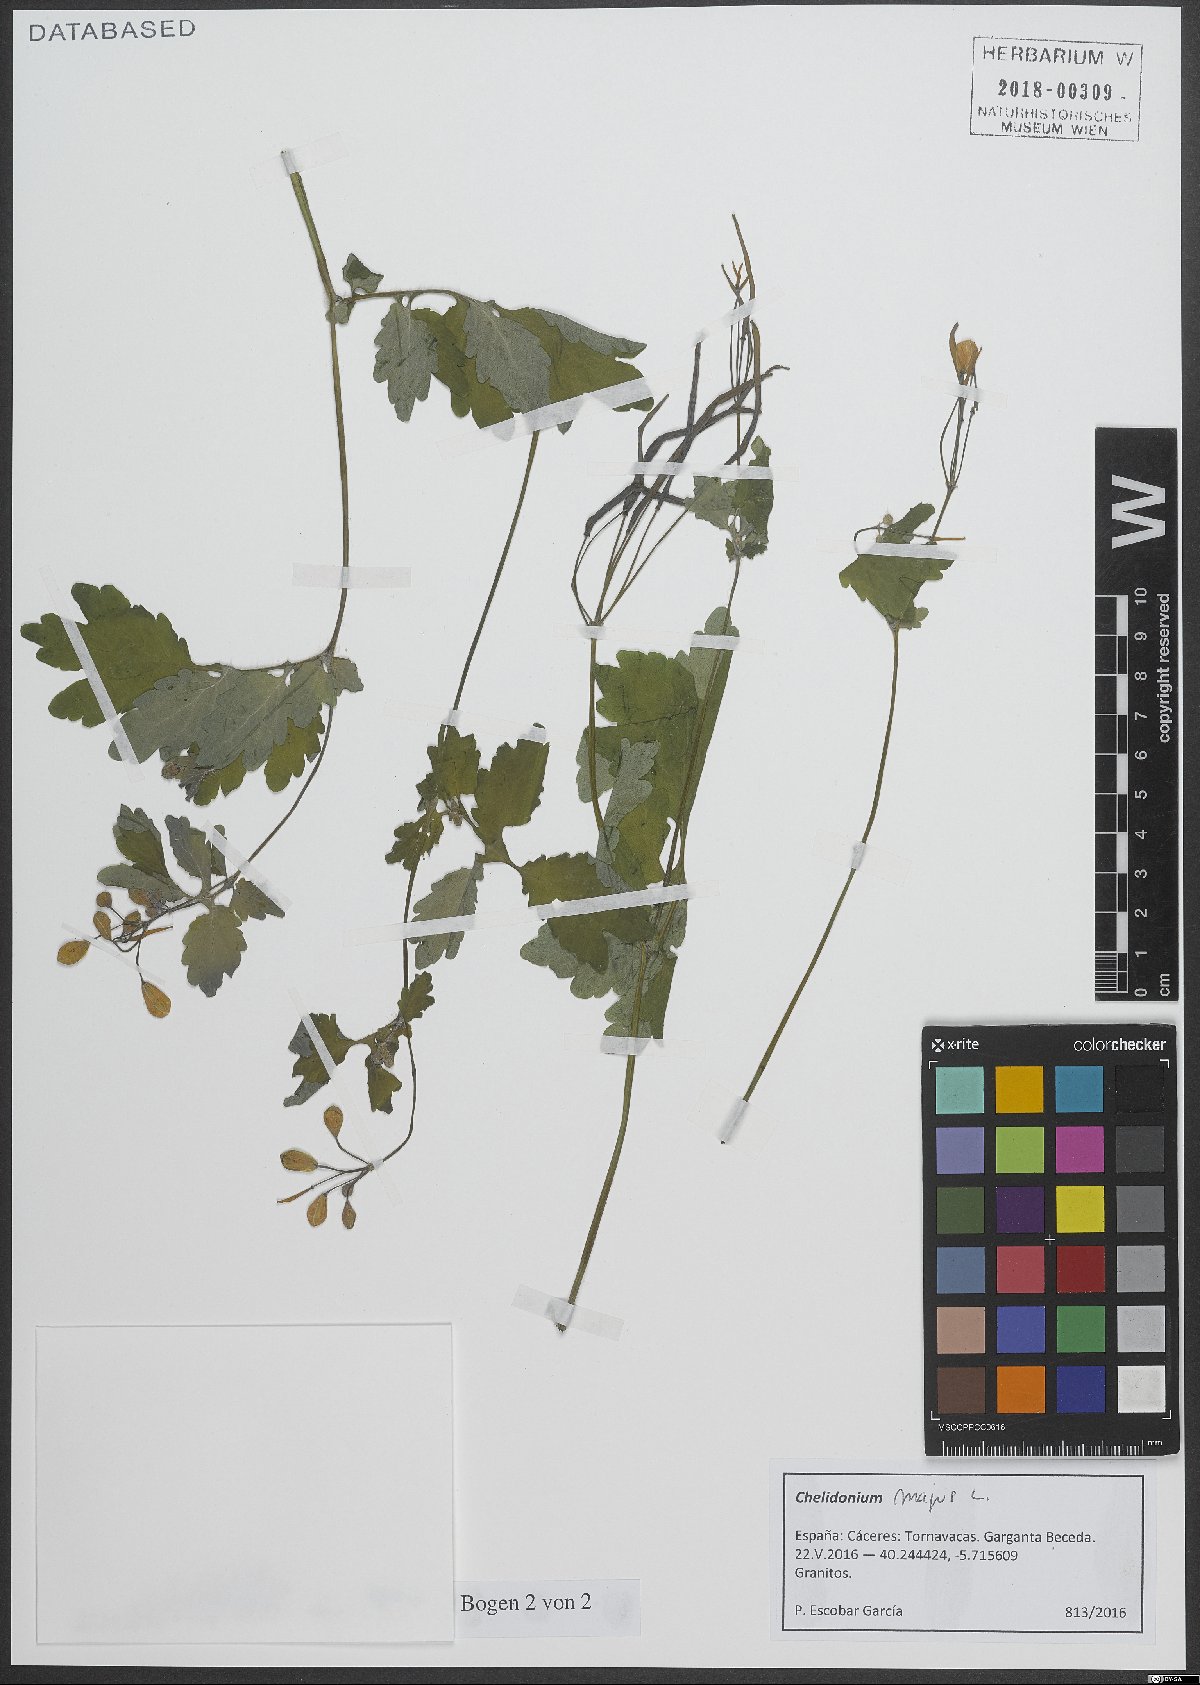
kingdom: Plantae
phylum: Tracheophyta
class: Magnoliopsida
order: Ranunculales
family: Papaveraceae
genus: Chelidonium
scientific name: Chelidonium majus
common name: Greater celandine
